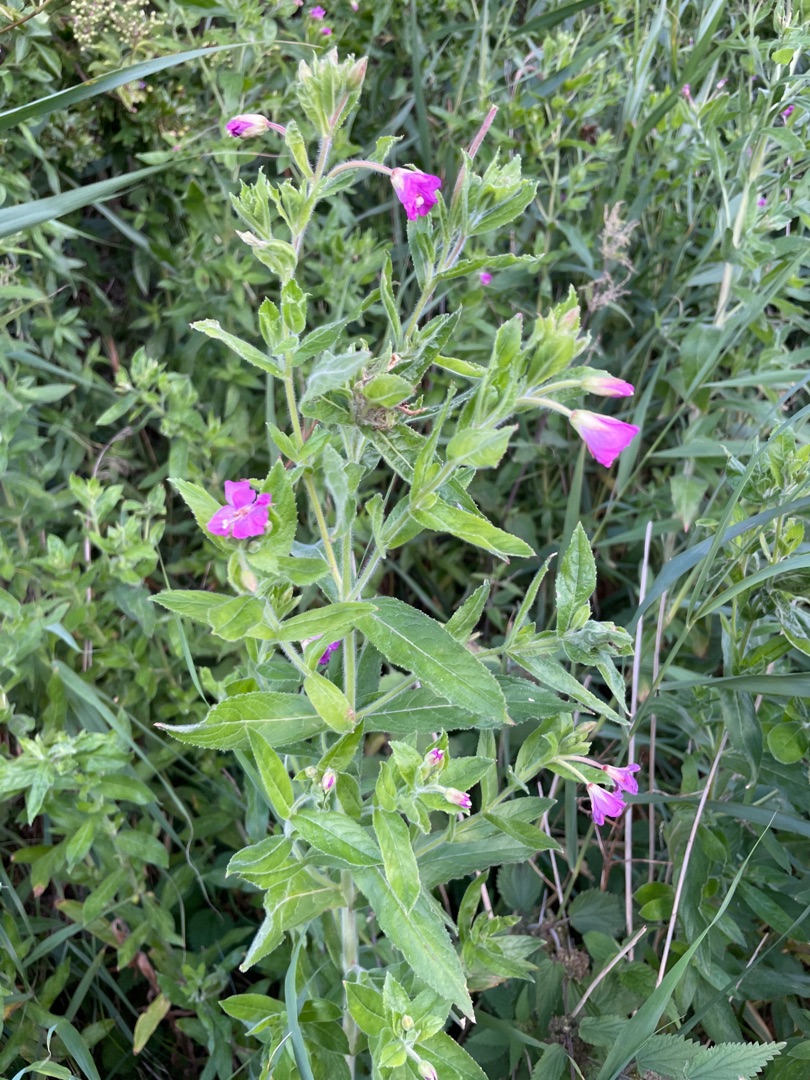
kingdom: Plantae
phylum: Tracheophyta
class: Magnoliopsida
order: Myrtales
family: Onagraceae
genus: Epilobium
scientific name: Epilobium hirsutum
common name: Lådden dueurt
